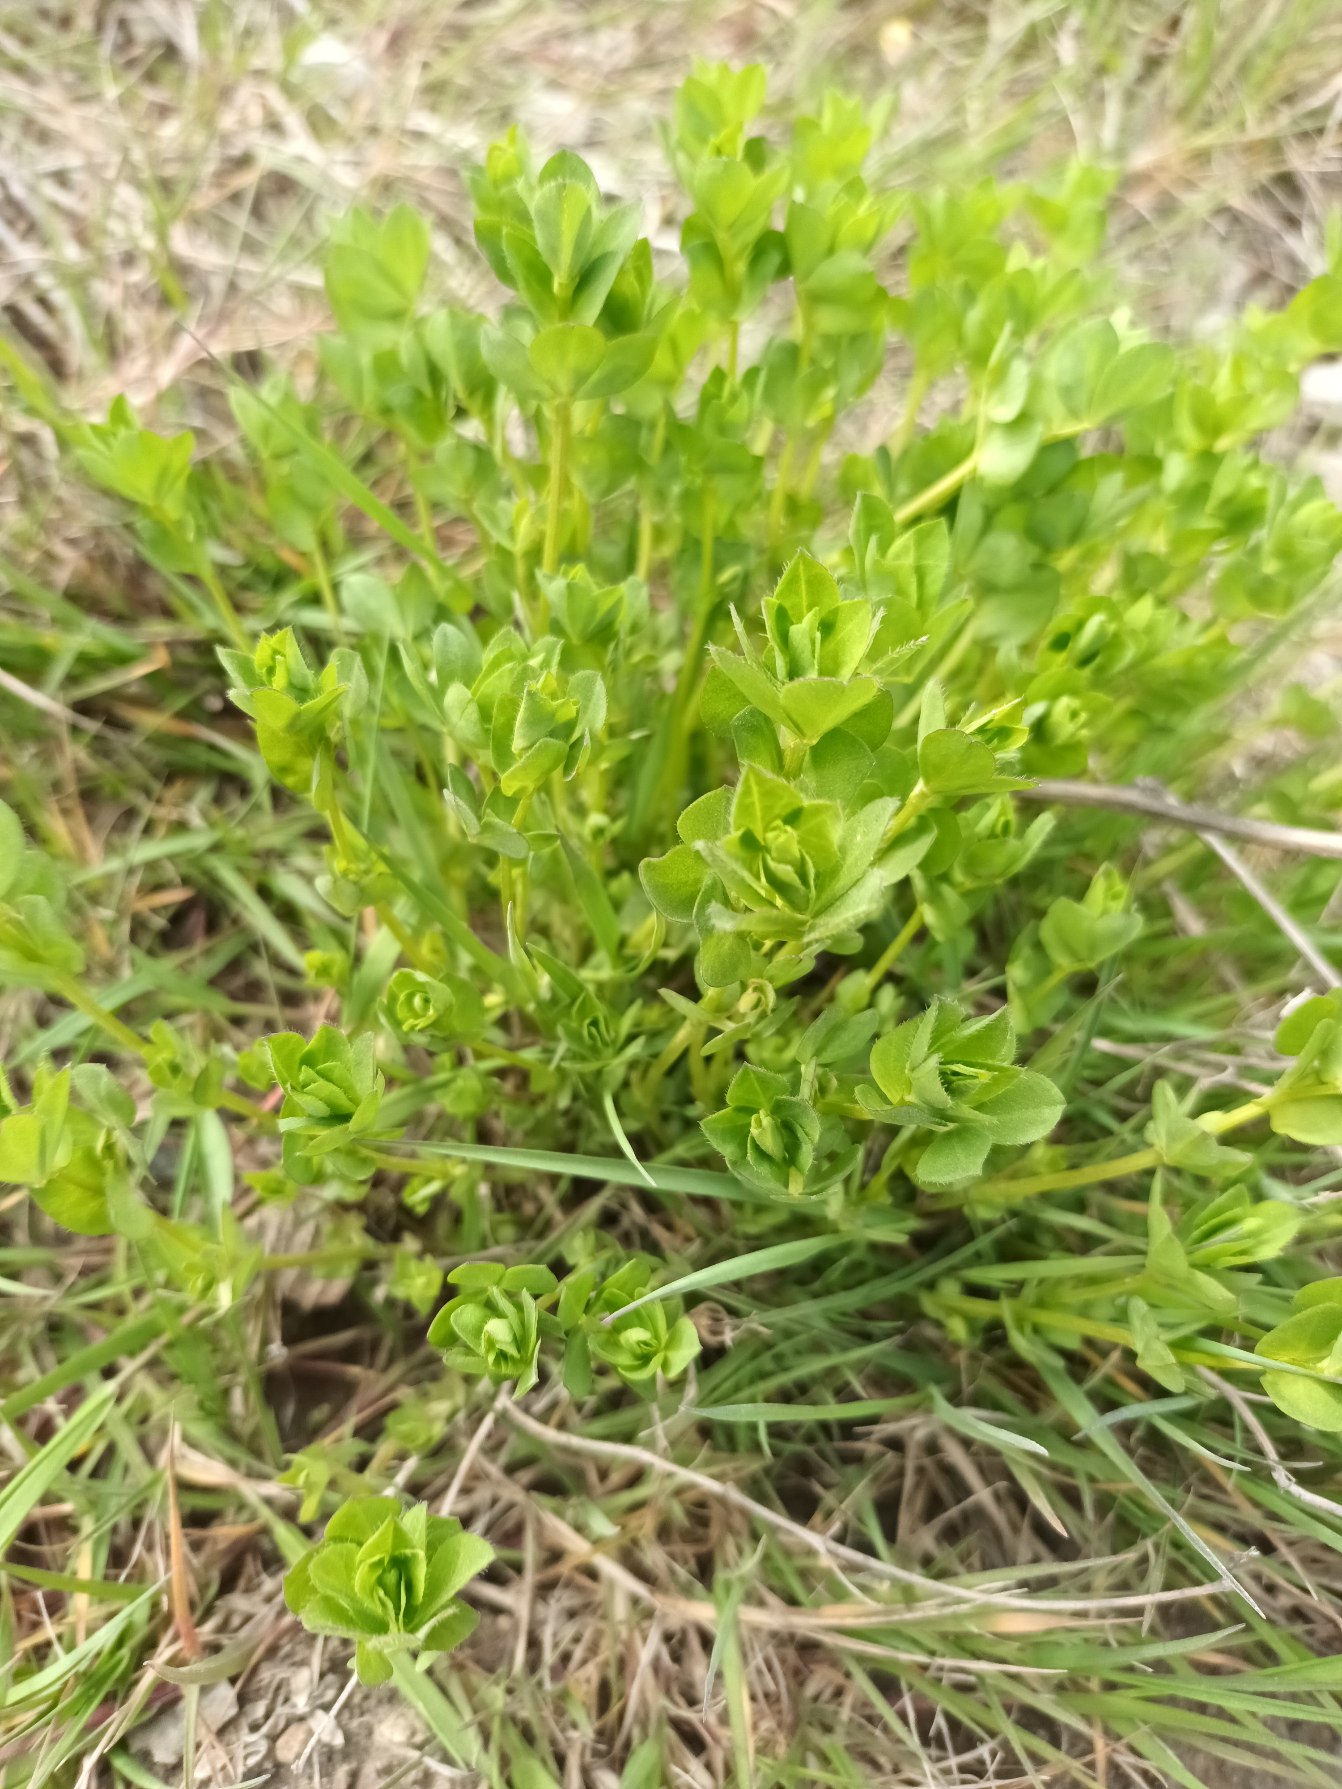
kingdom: Plantae
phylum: Tracheophyta
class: Magnoliopsida
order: Fabales
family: Fabaceae
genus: Lotus
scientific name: Lotus corniculatus
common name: Almindelig kællingetand
